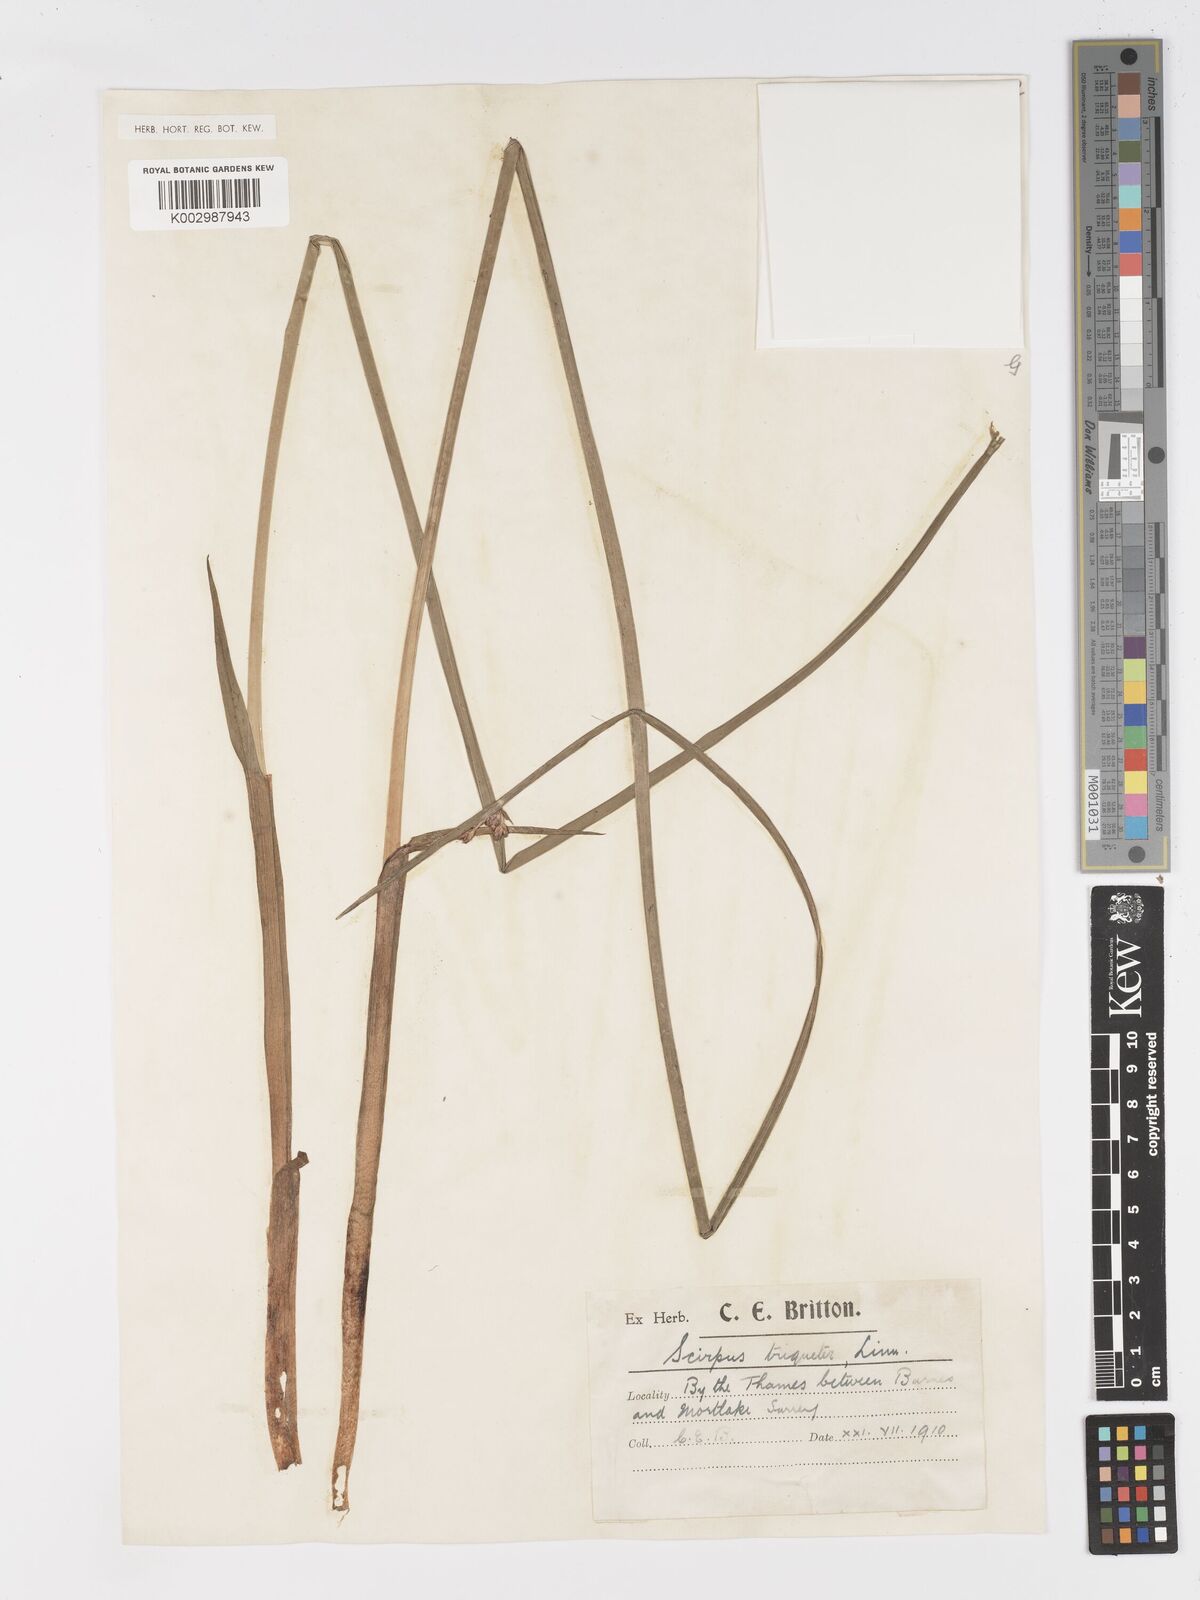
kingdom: Plantae
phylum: Tracheophyta
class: Liliopsida
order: Poales
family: Cyperaceae
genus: Schoenoplectus
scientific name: Schoenoplectus triqueter
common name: Triangular club-rush
